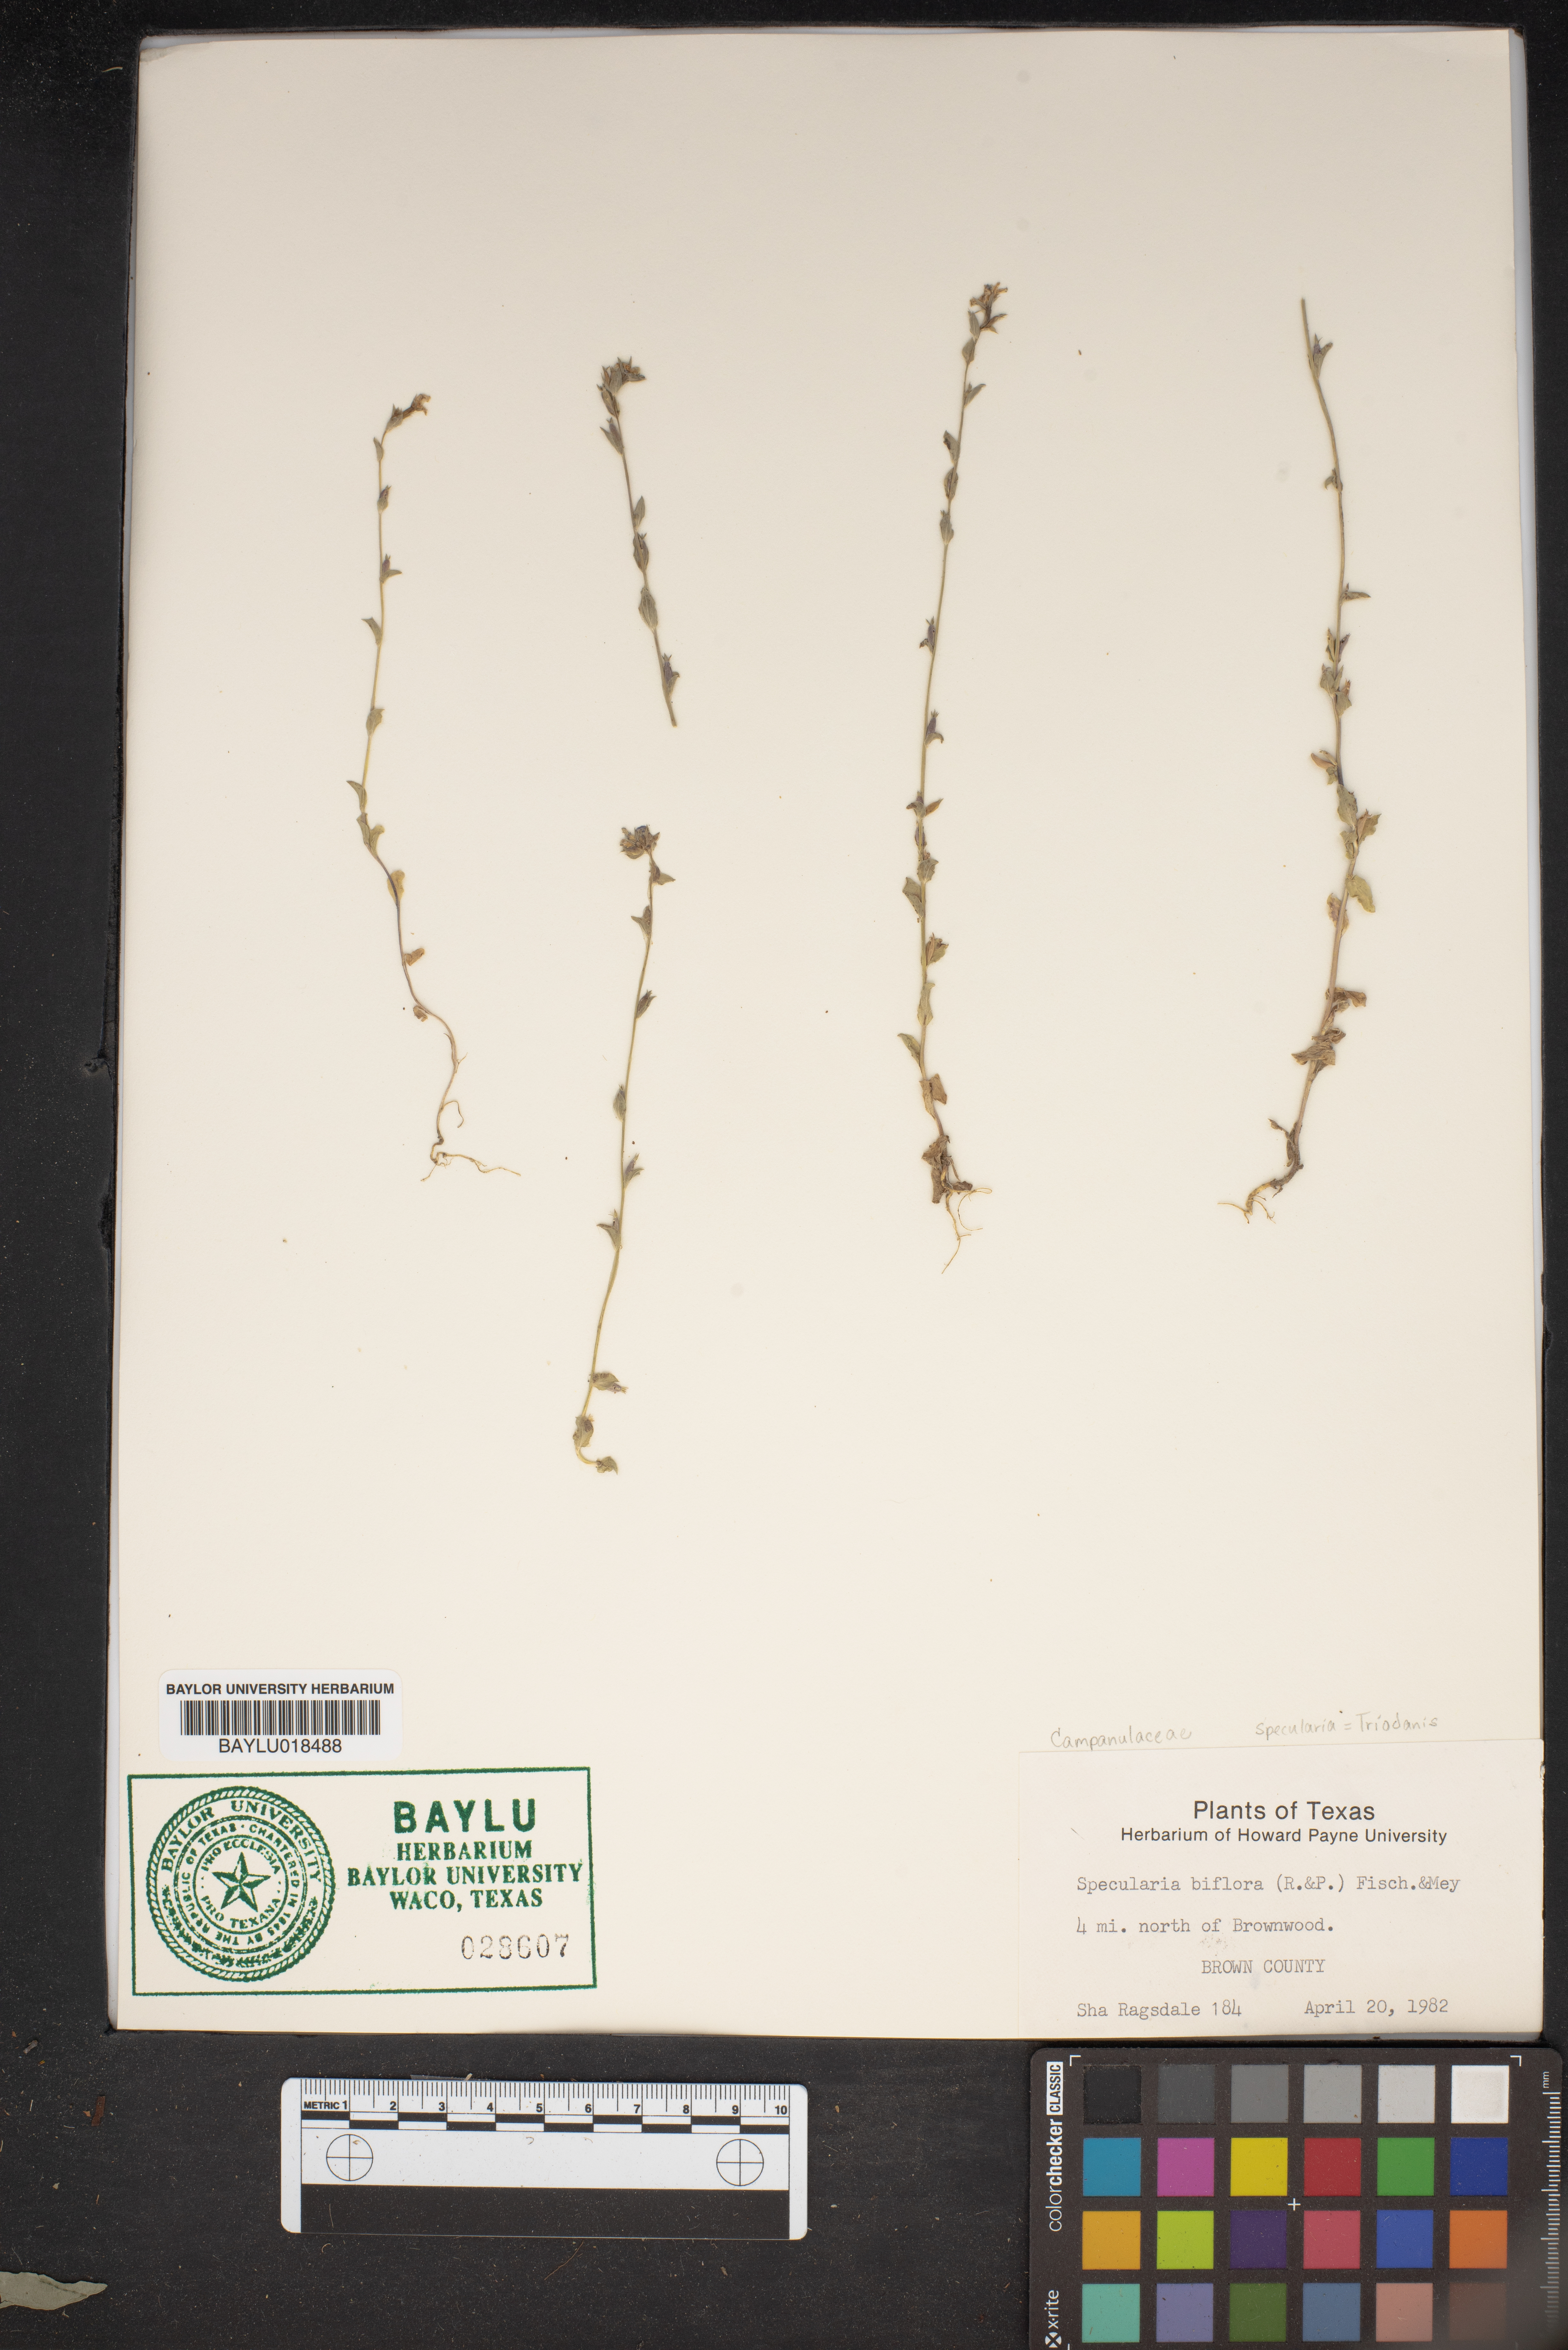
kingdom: Plantae
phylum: Tracheophyta
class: Magnoliopsida
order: Asterales
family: Campanulaceae
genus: Triodanis
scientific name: Triodanis perfoliata
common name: Clasping venus' looking-glass
